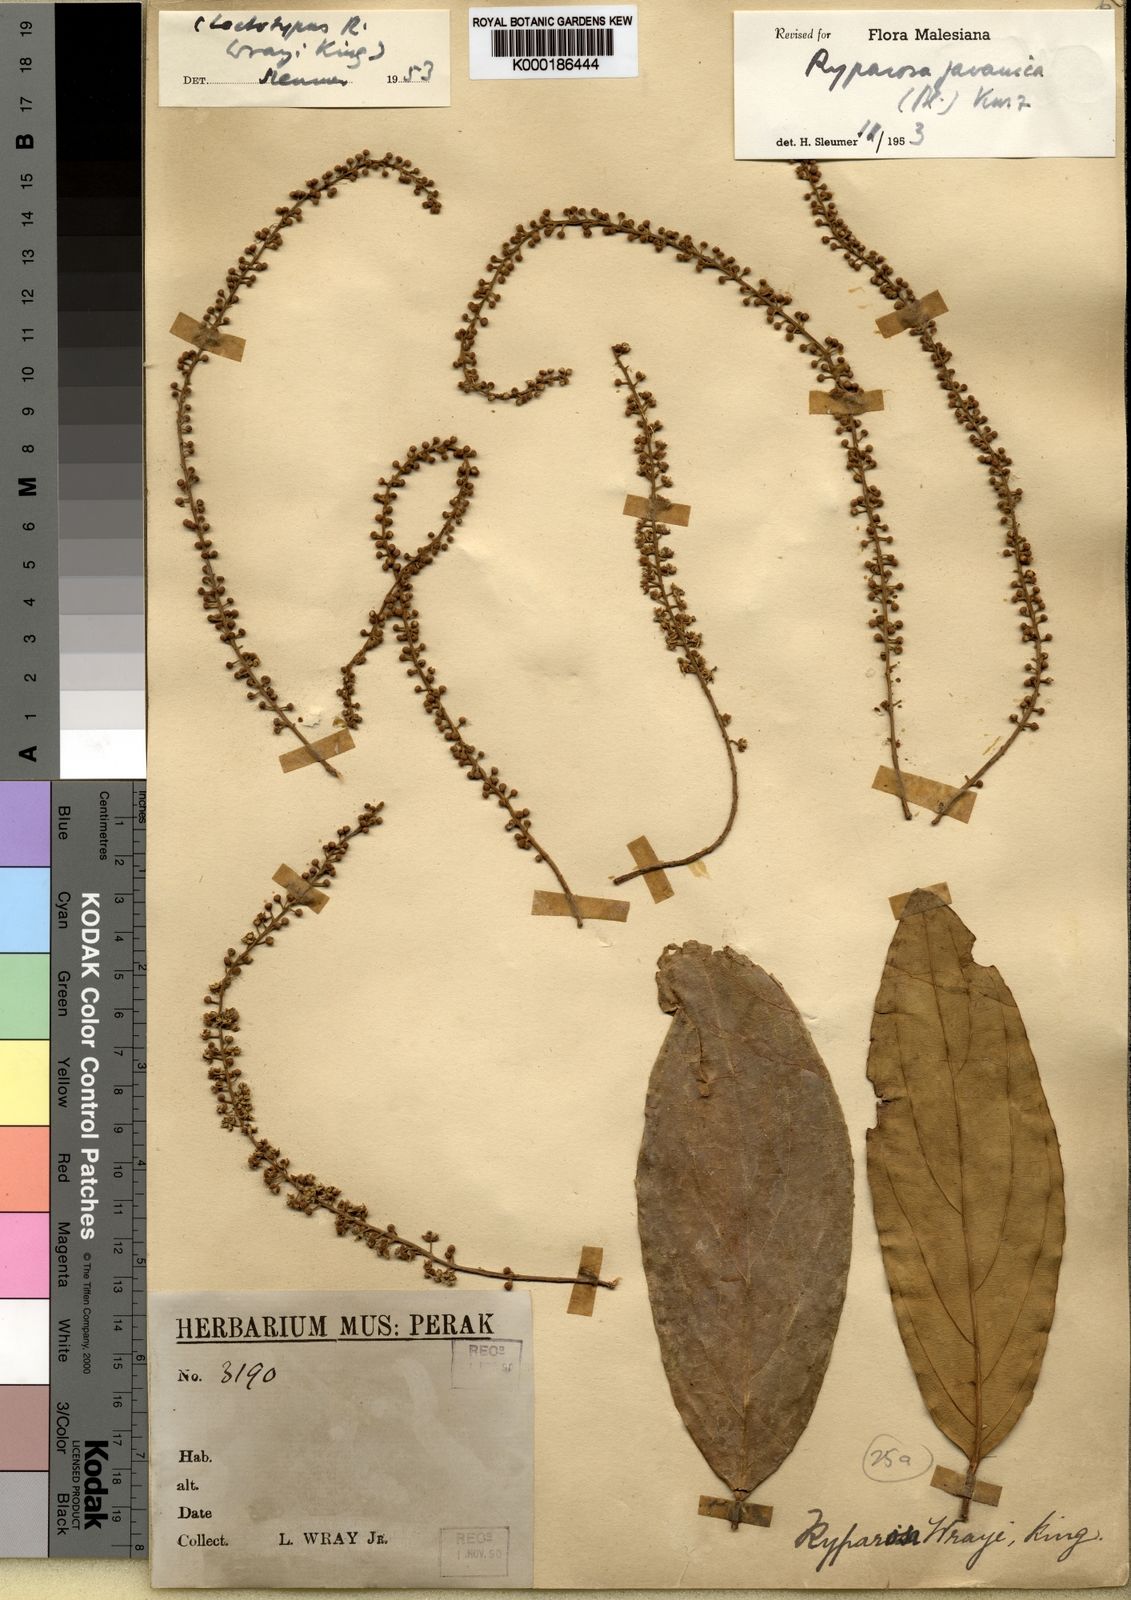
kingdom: Plantae
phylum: Tracheophyta
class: Magnoliopsida
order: Malpighiales
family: Achariaceae
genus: Ryparosa
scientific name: Ryparosa javanica
